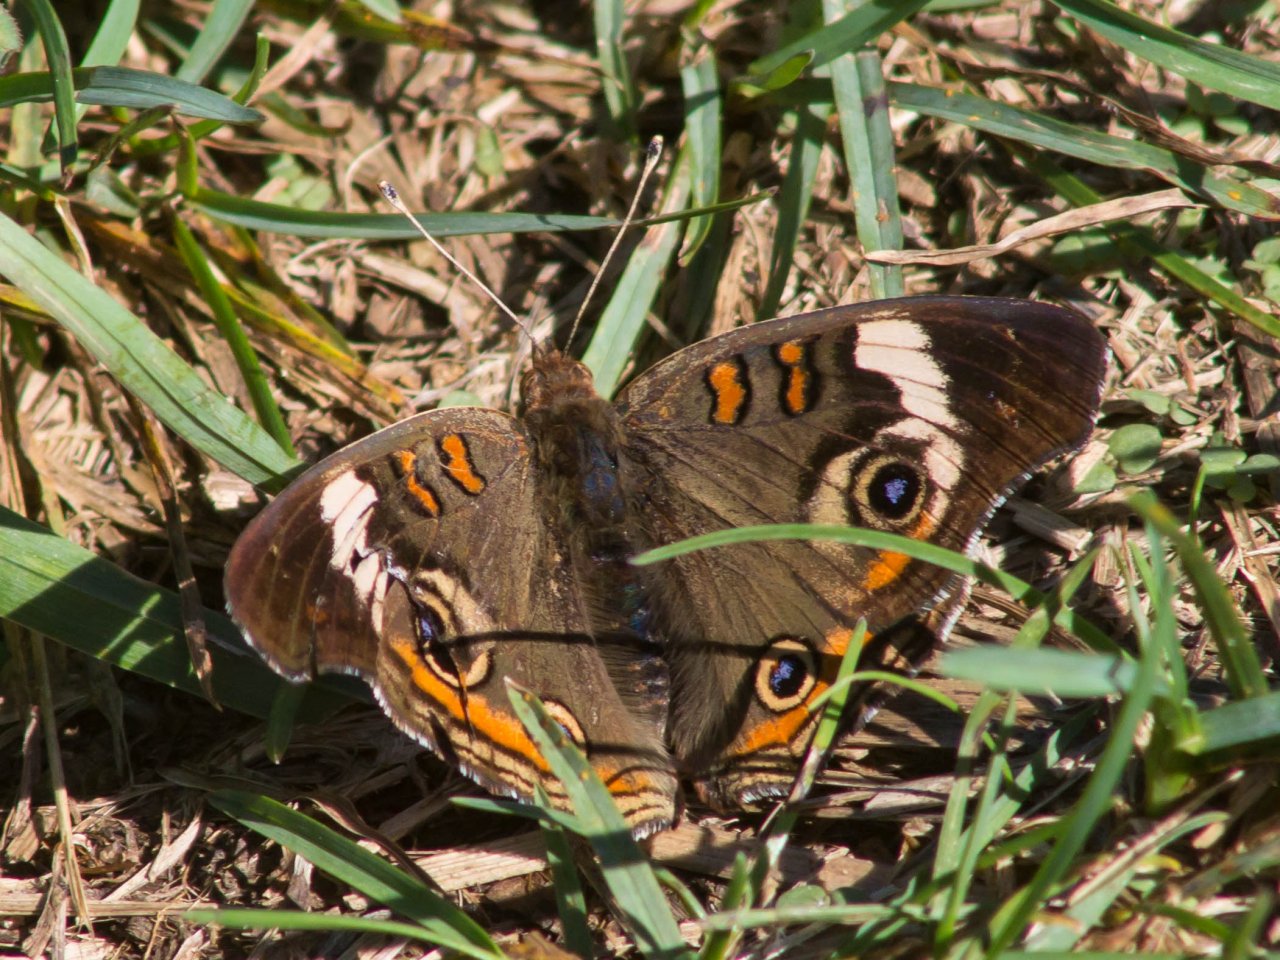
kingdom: Animalia
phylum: Arthropoda
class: Insecta
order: Lepidoptera
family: Nymphalidae
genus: Junonia
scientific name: Junonia coenia
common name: Common Buckeye
